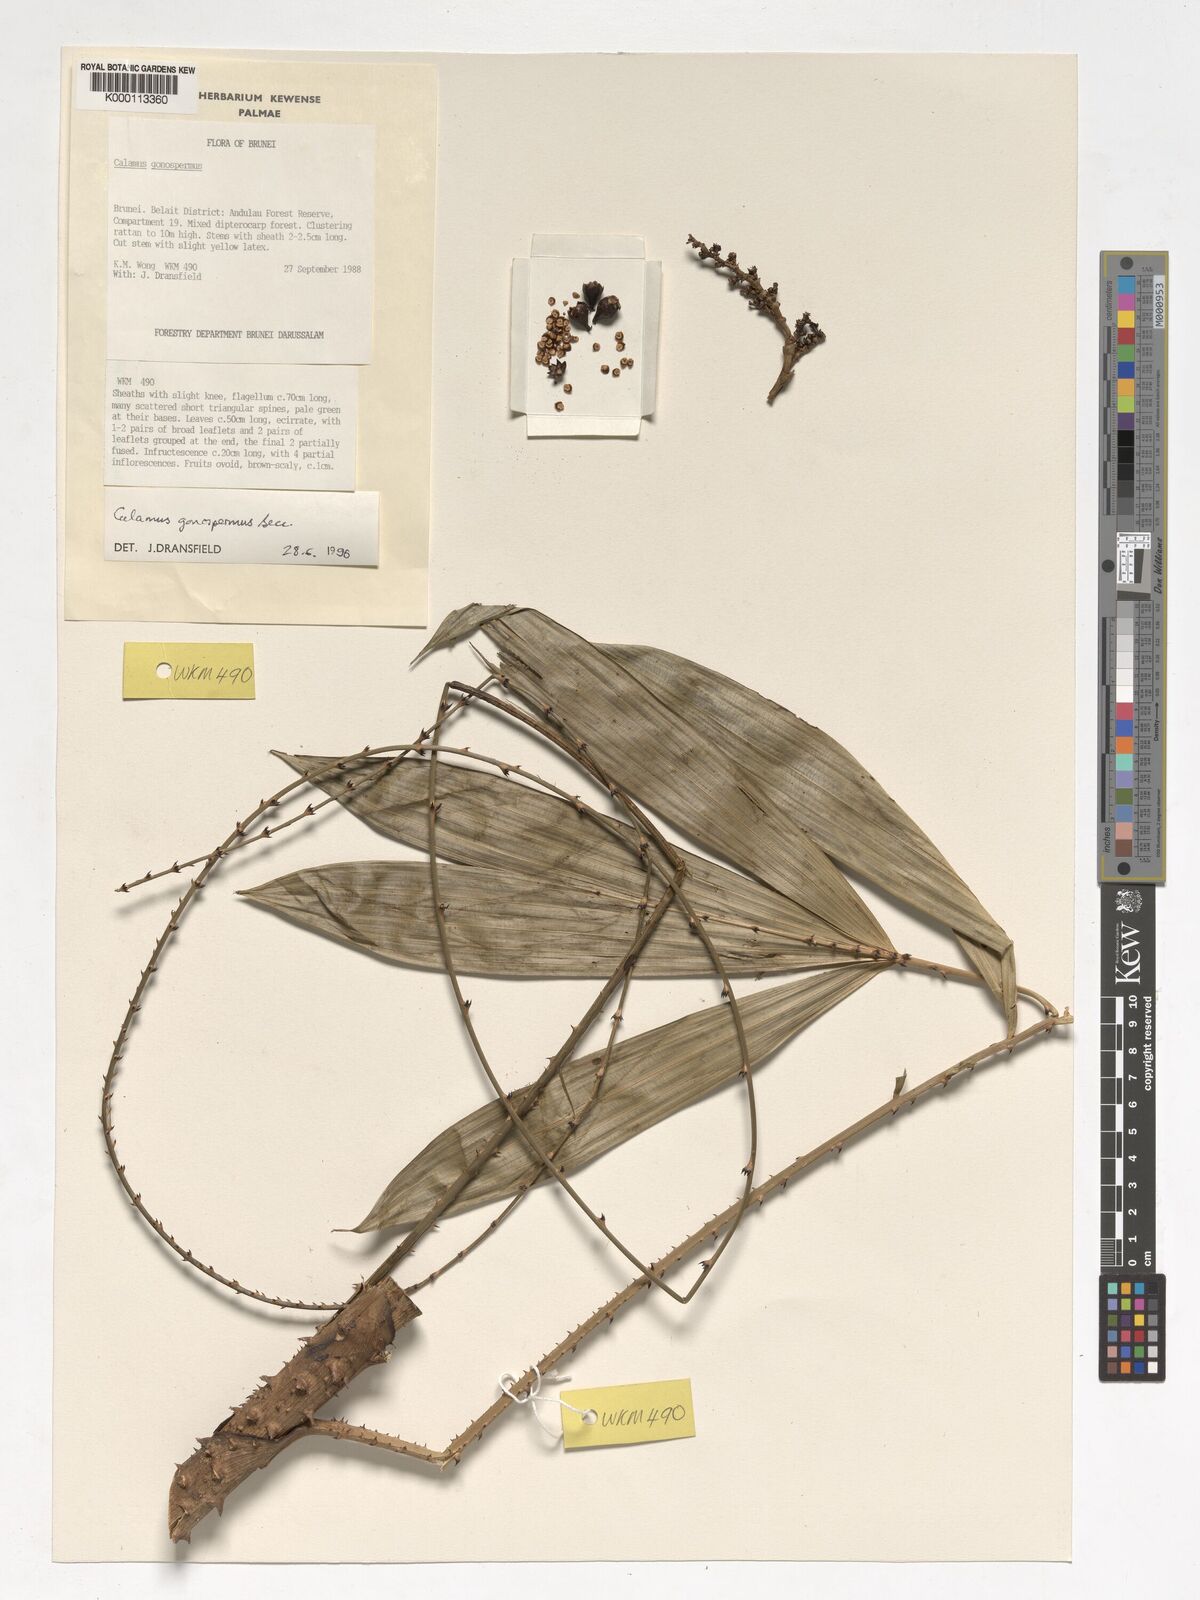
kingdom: Plantae
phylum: Tracheophyta
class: Liliopsida
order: Arecales
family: Arecaceae
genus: Calamus
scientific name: Calamus gonospermus
